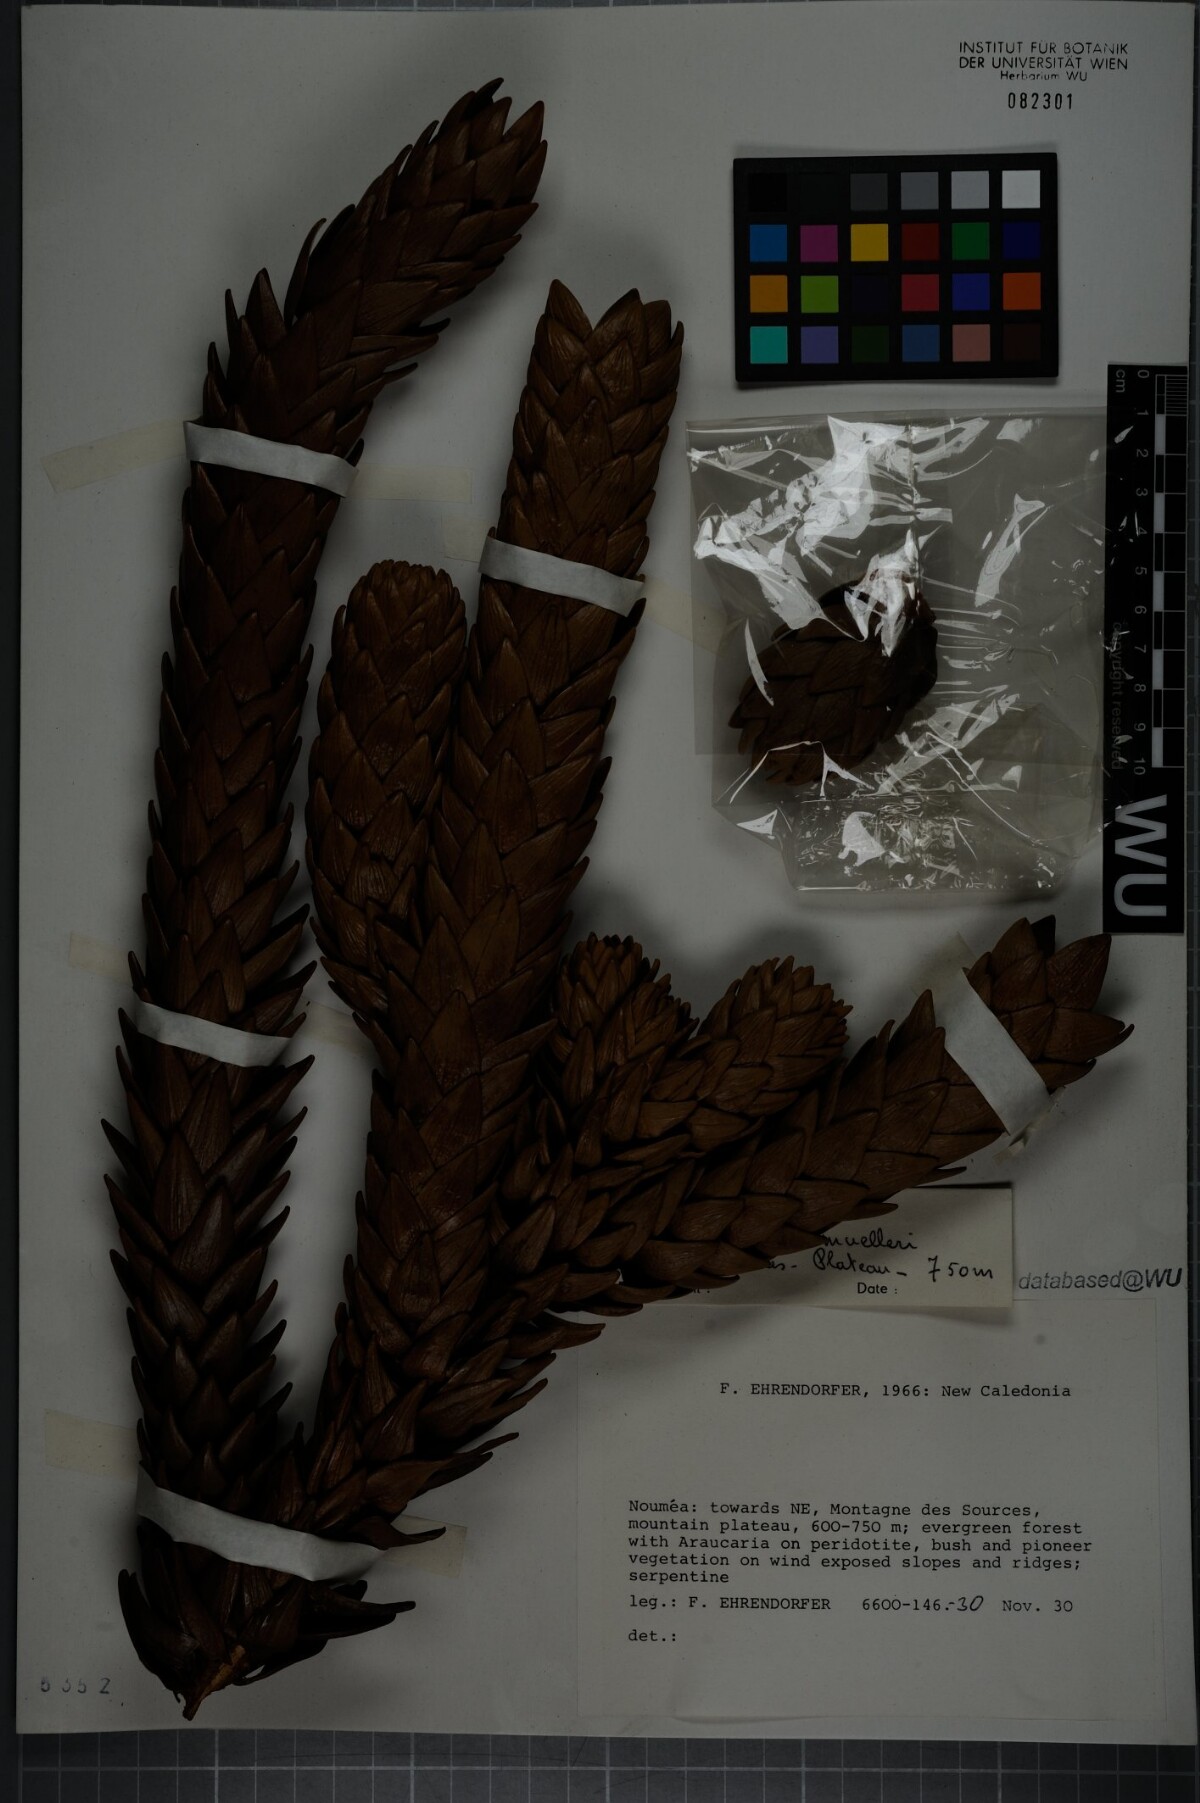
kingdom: Plantae
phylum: Tracheophyta
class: Pinopsida
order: Pinales
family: Araucariaceae
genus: Araucaria
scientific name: Araucaria muelleri
